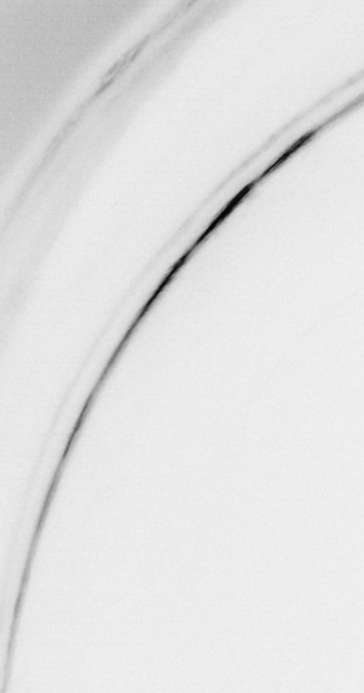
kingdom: Animalia
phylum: Chaetognatha
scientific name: Chaetognatha
